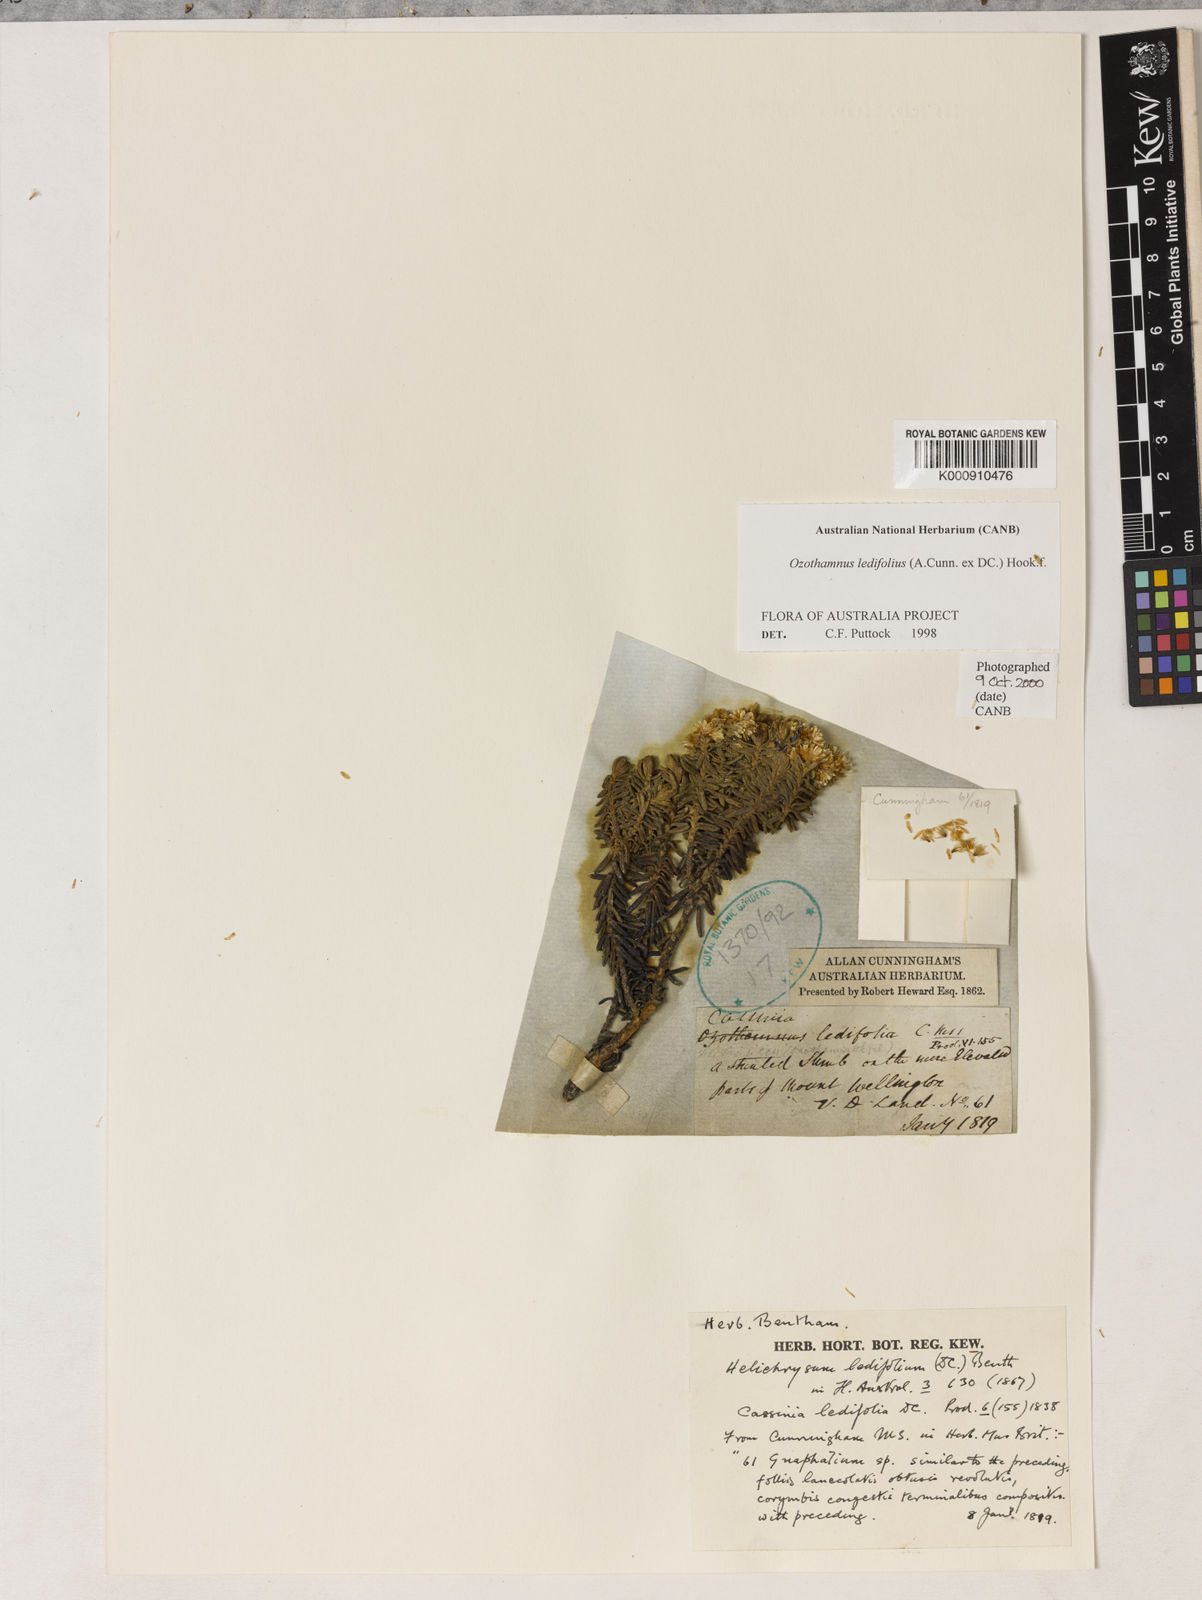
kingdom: Plantae
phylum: Tracheophyta
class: Magnoliopsida
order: Asterales
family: Asteraceae
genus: Ozothamnus
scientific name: Ozothamnus ledifolius
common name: Kerosene-weed
